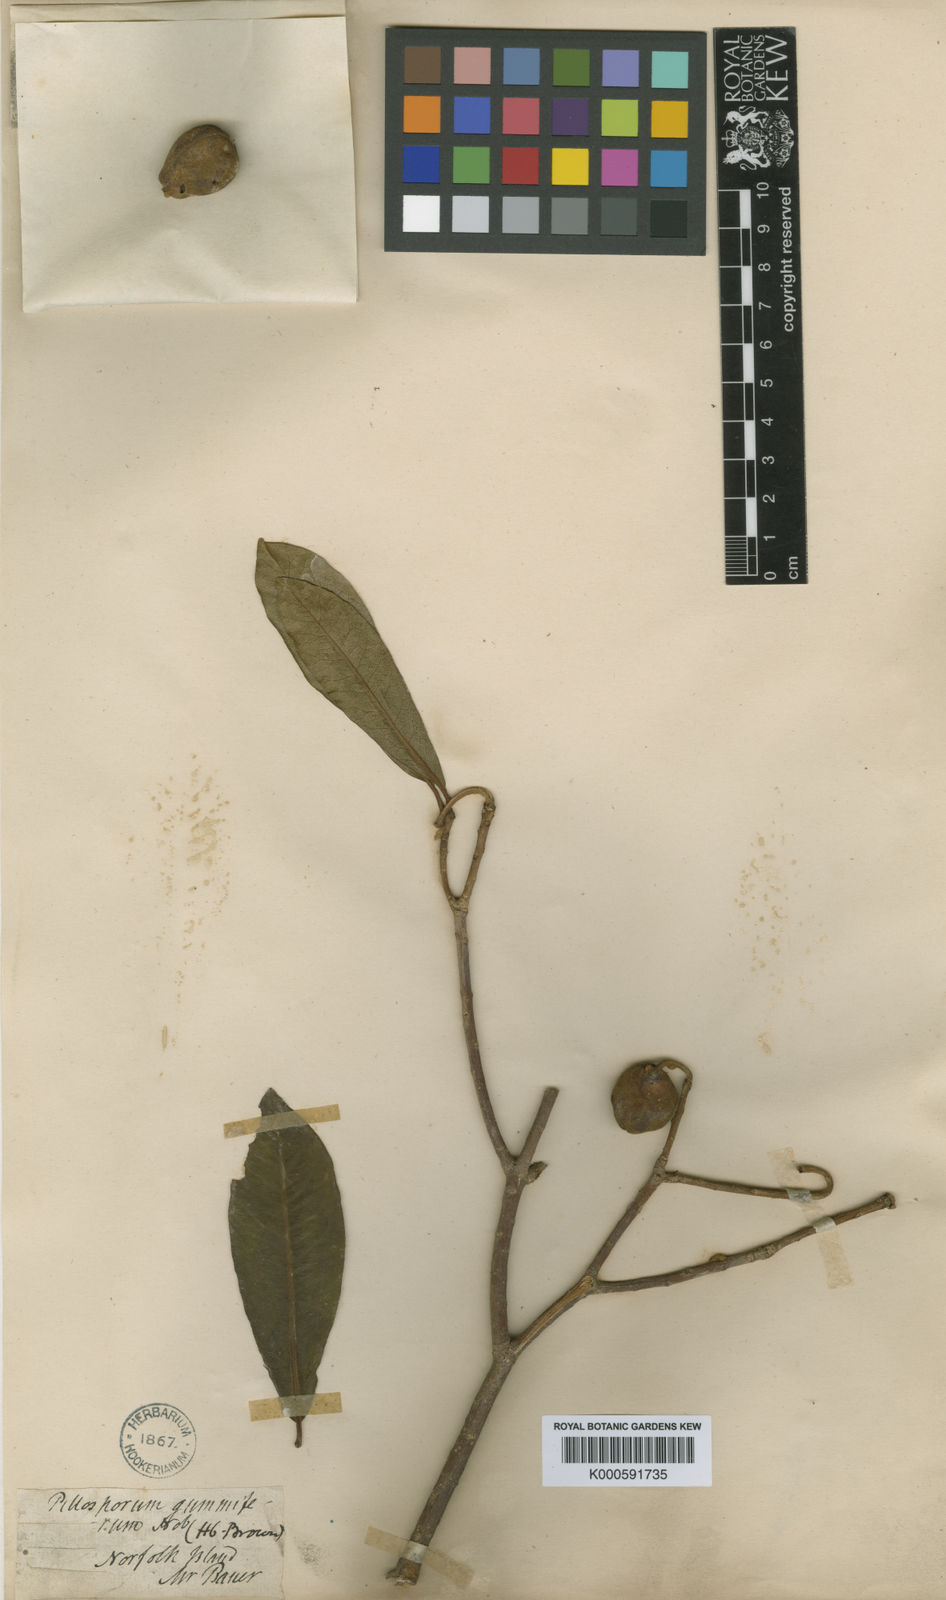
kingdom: Plantae
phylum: Tracheophyta
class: Magnoliopsida
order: Apiales
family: Pittosporaceae
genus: Pittosporum
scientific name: Pittosporum bracteolatum
